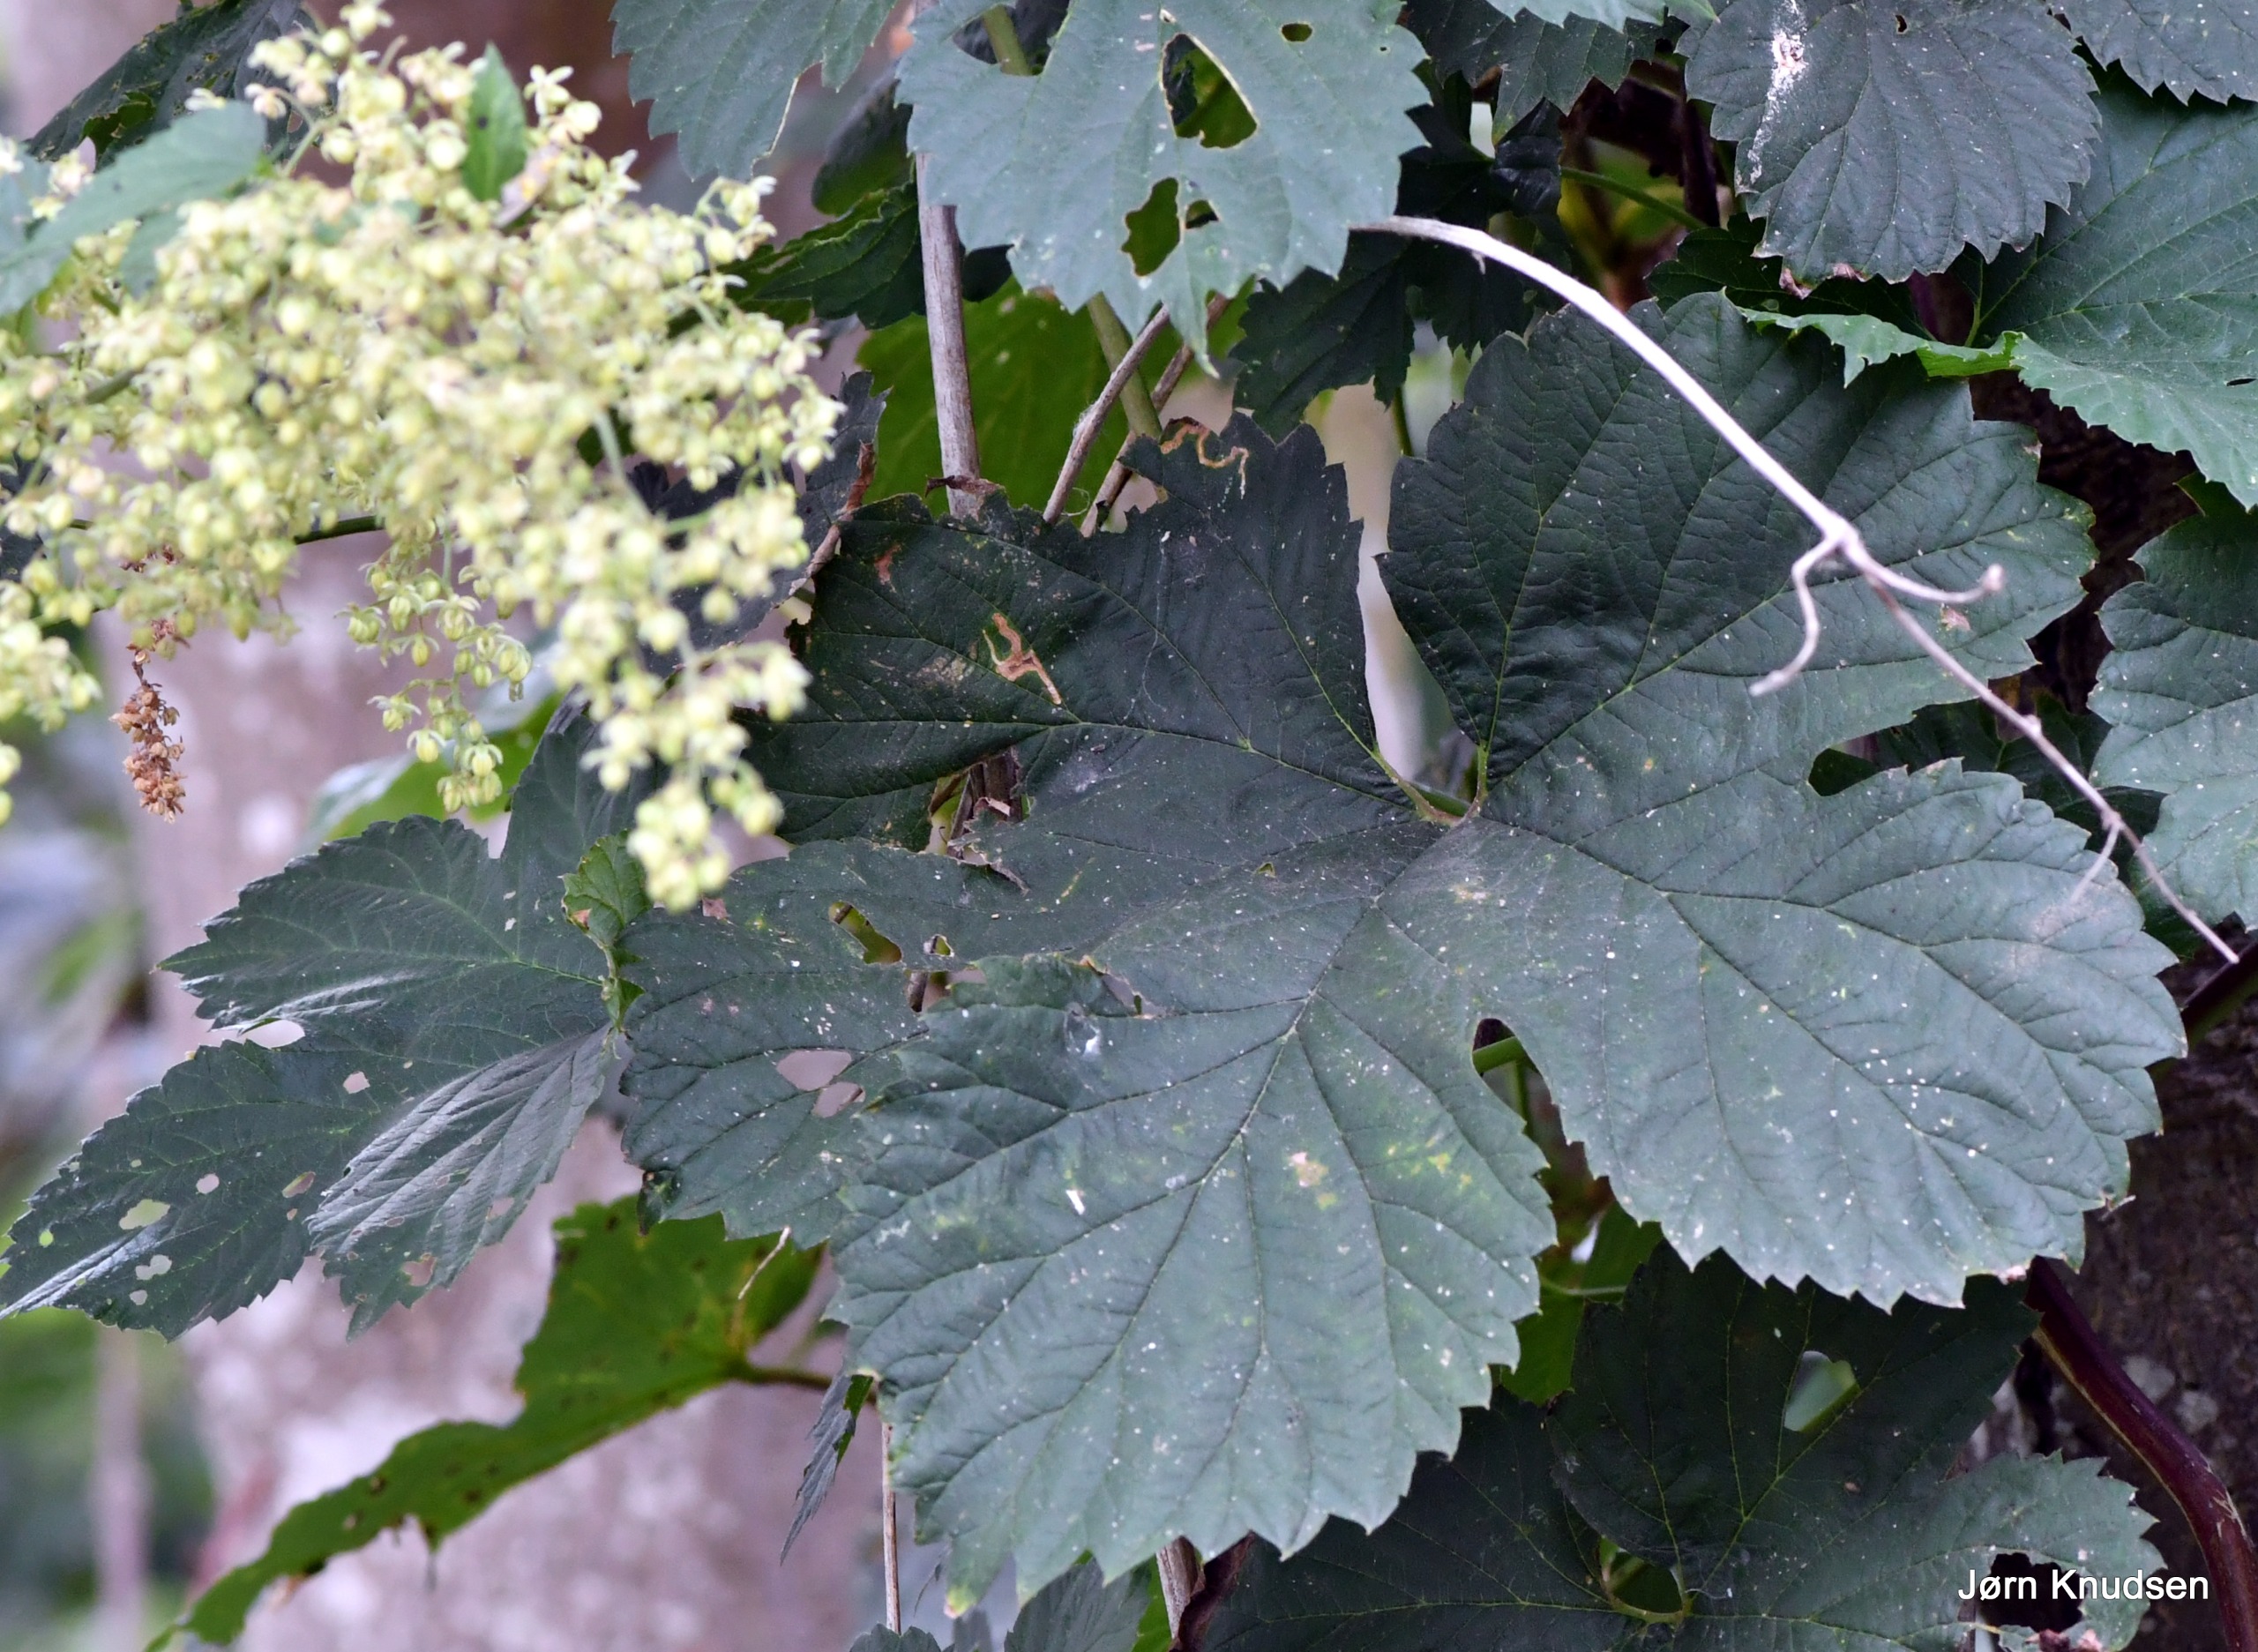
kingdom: Plantae
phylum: Tracheophyta
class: Magnoliopsida
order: Rosales
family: Cannabaceae
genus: Humulus
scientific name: Humulus lupulus
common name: Humle
